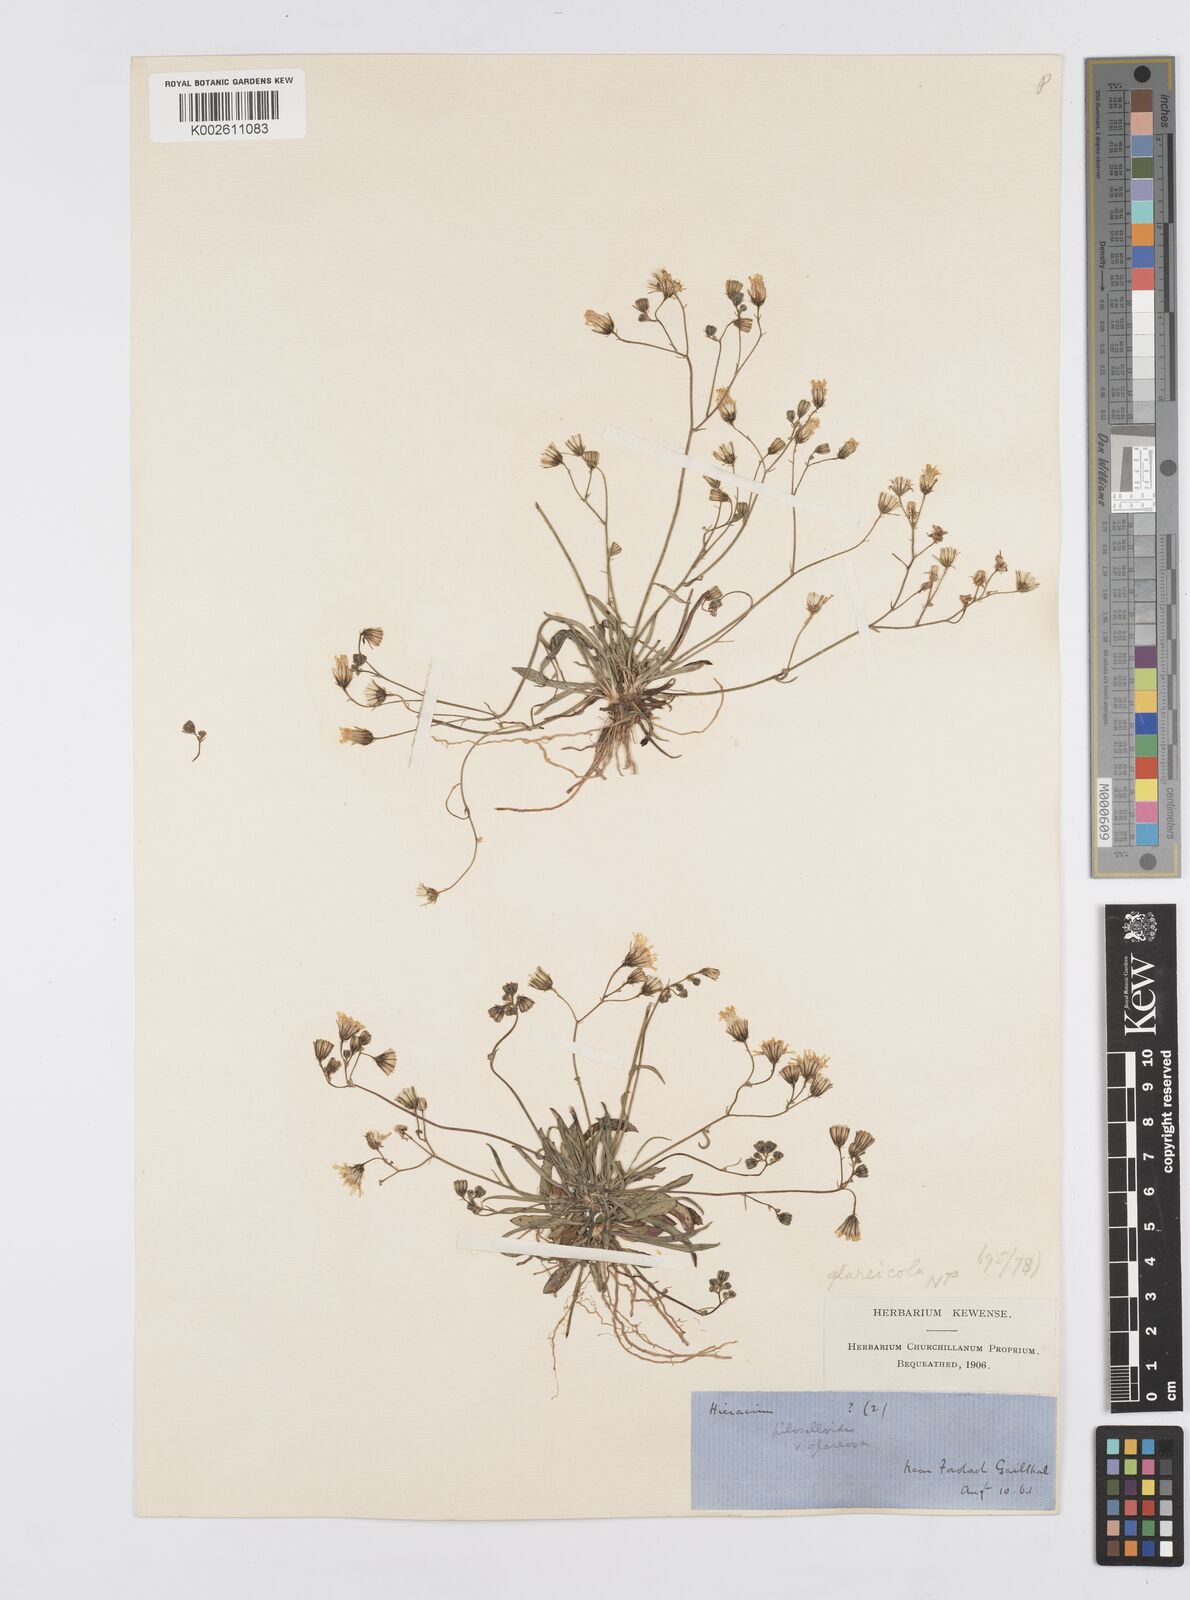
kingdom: Plantae
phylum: Tracheophyta
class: Magnoliopsida
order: Asterales
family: Asteraceae
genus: Pilosella
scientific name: Pilosella piloselloides
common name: Glaucous king-devil
